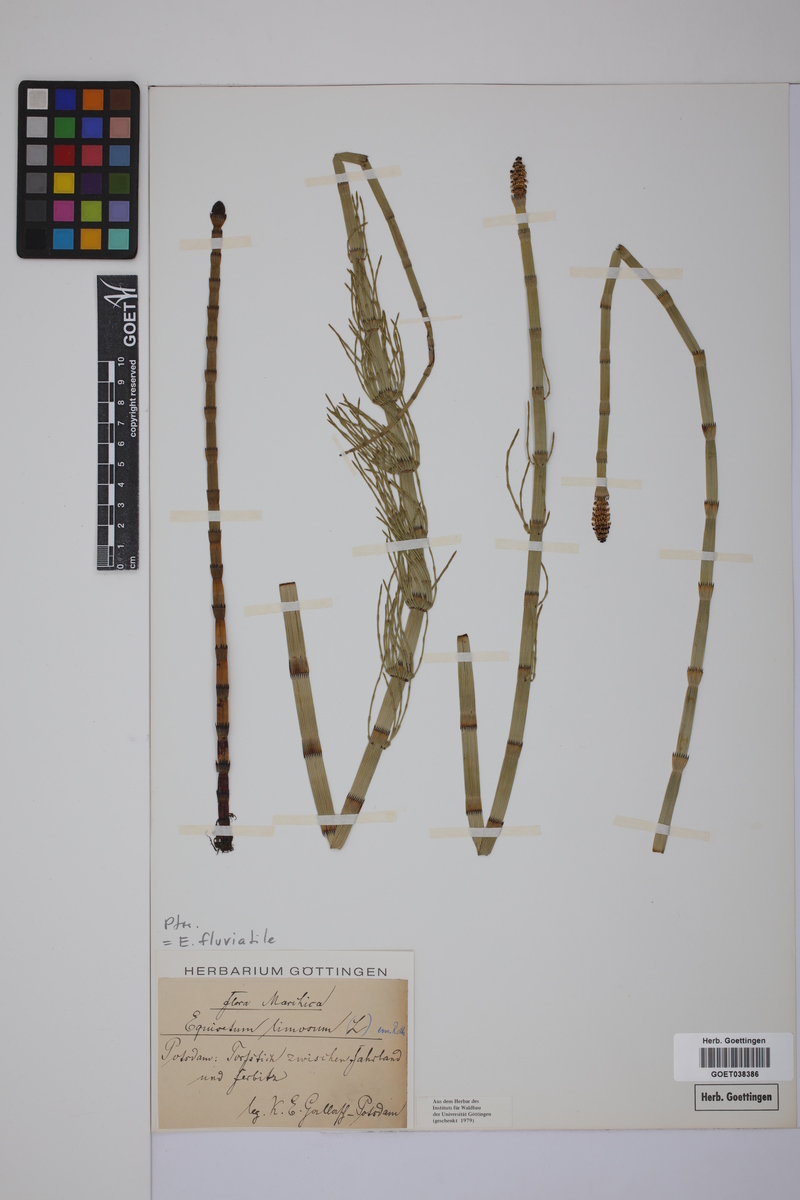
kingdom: Plantae
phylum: Tracheophyta
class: Polypodiopsida
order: Equisetales
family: Equisetaceae
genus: Equisetum
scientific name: Equisetum fluviatile
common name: Water horsetail
